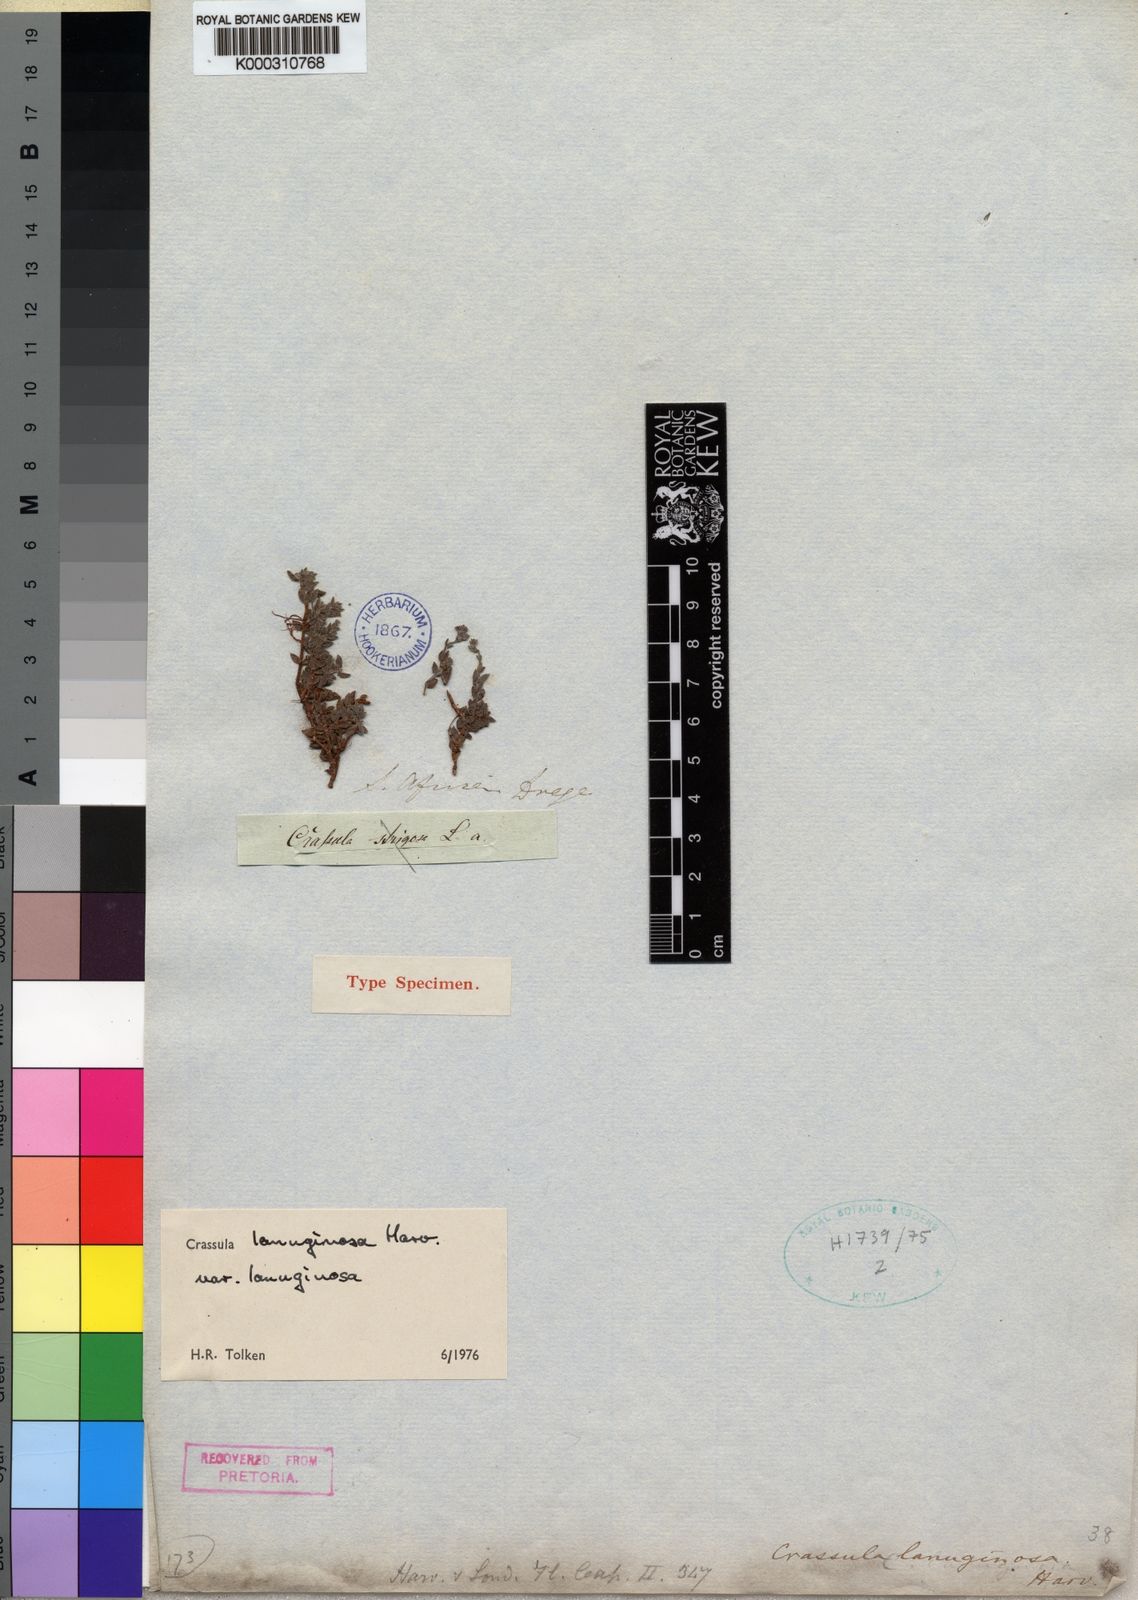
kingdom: Plantae
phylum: Tracheophyta
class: Magnoliopsida
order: Saxifragales
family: Crassulaceae
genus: Crassula
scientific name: Crassula lanuginosa
